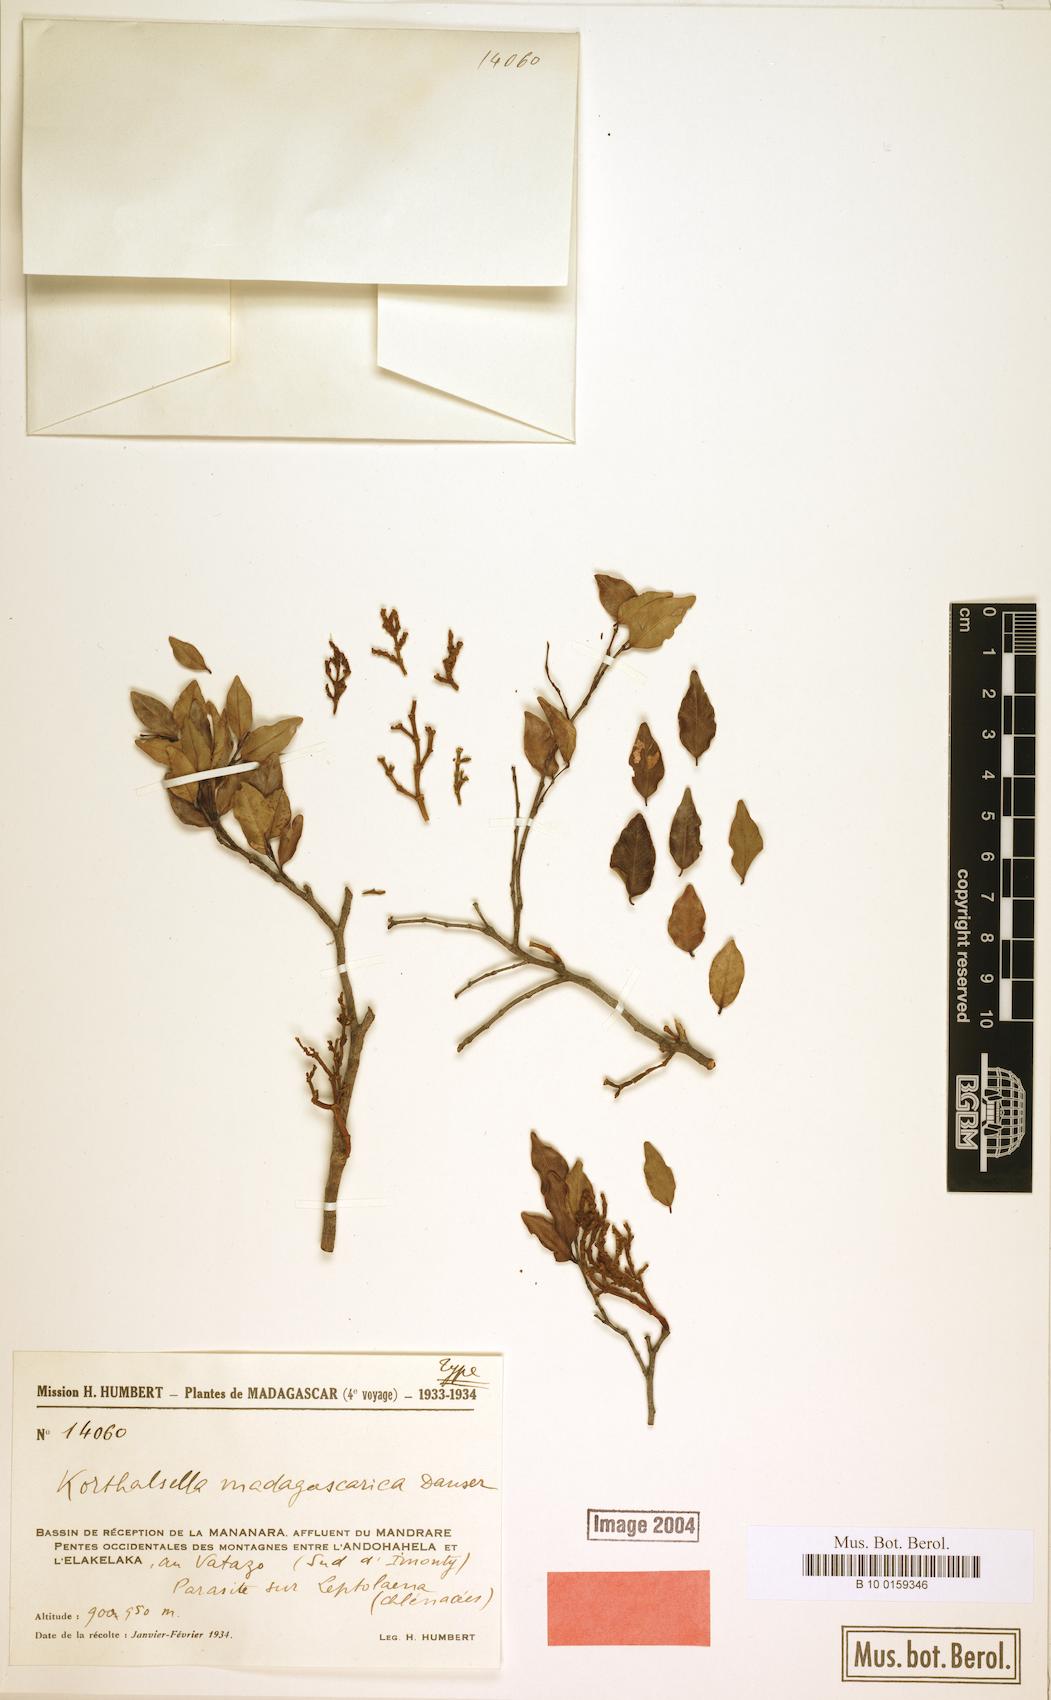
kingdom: Plantae
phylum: Tracheophyta
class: Magnoliopsida
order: Santalales
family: Viscaceae
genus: Korthalsella
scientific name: Korthalsella madagascarica
